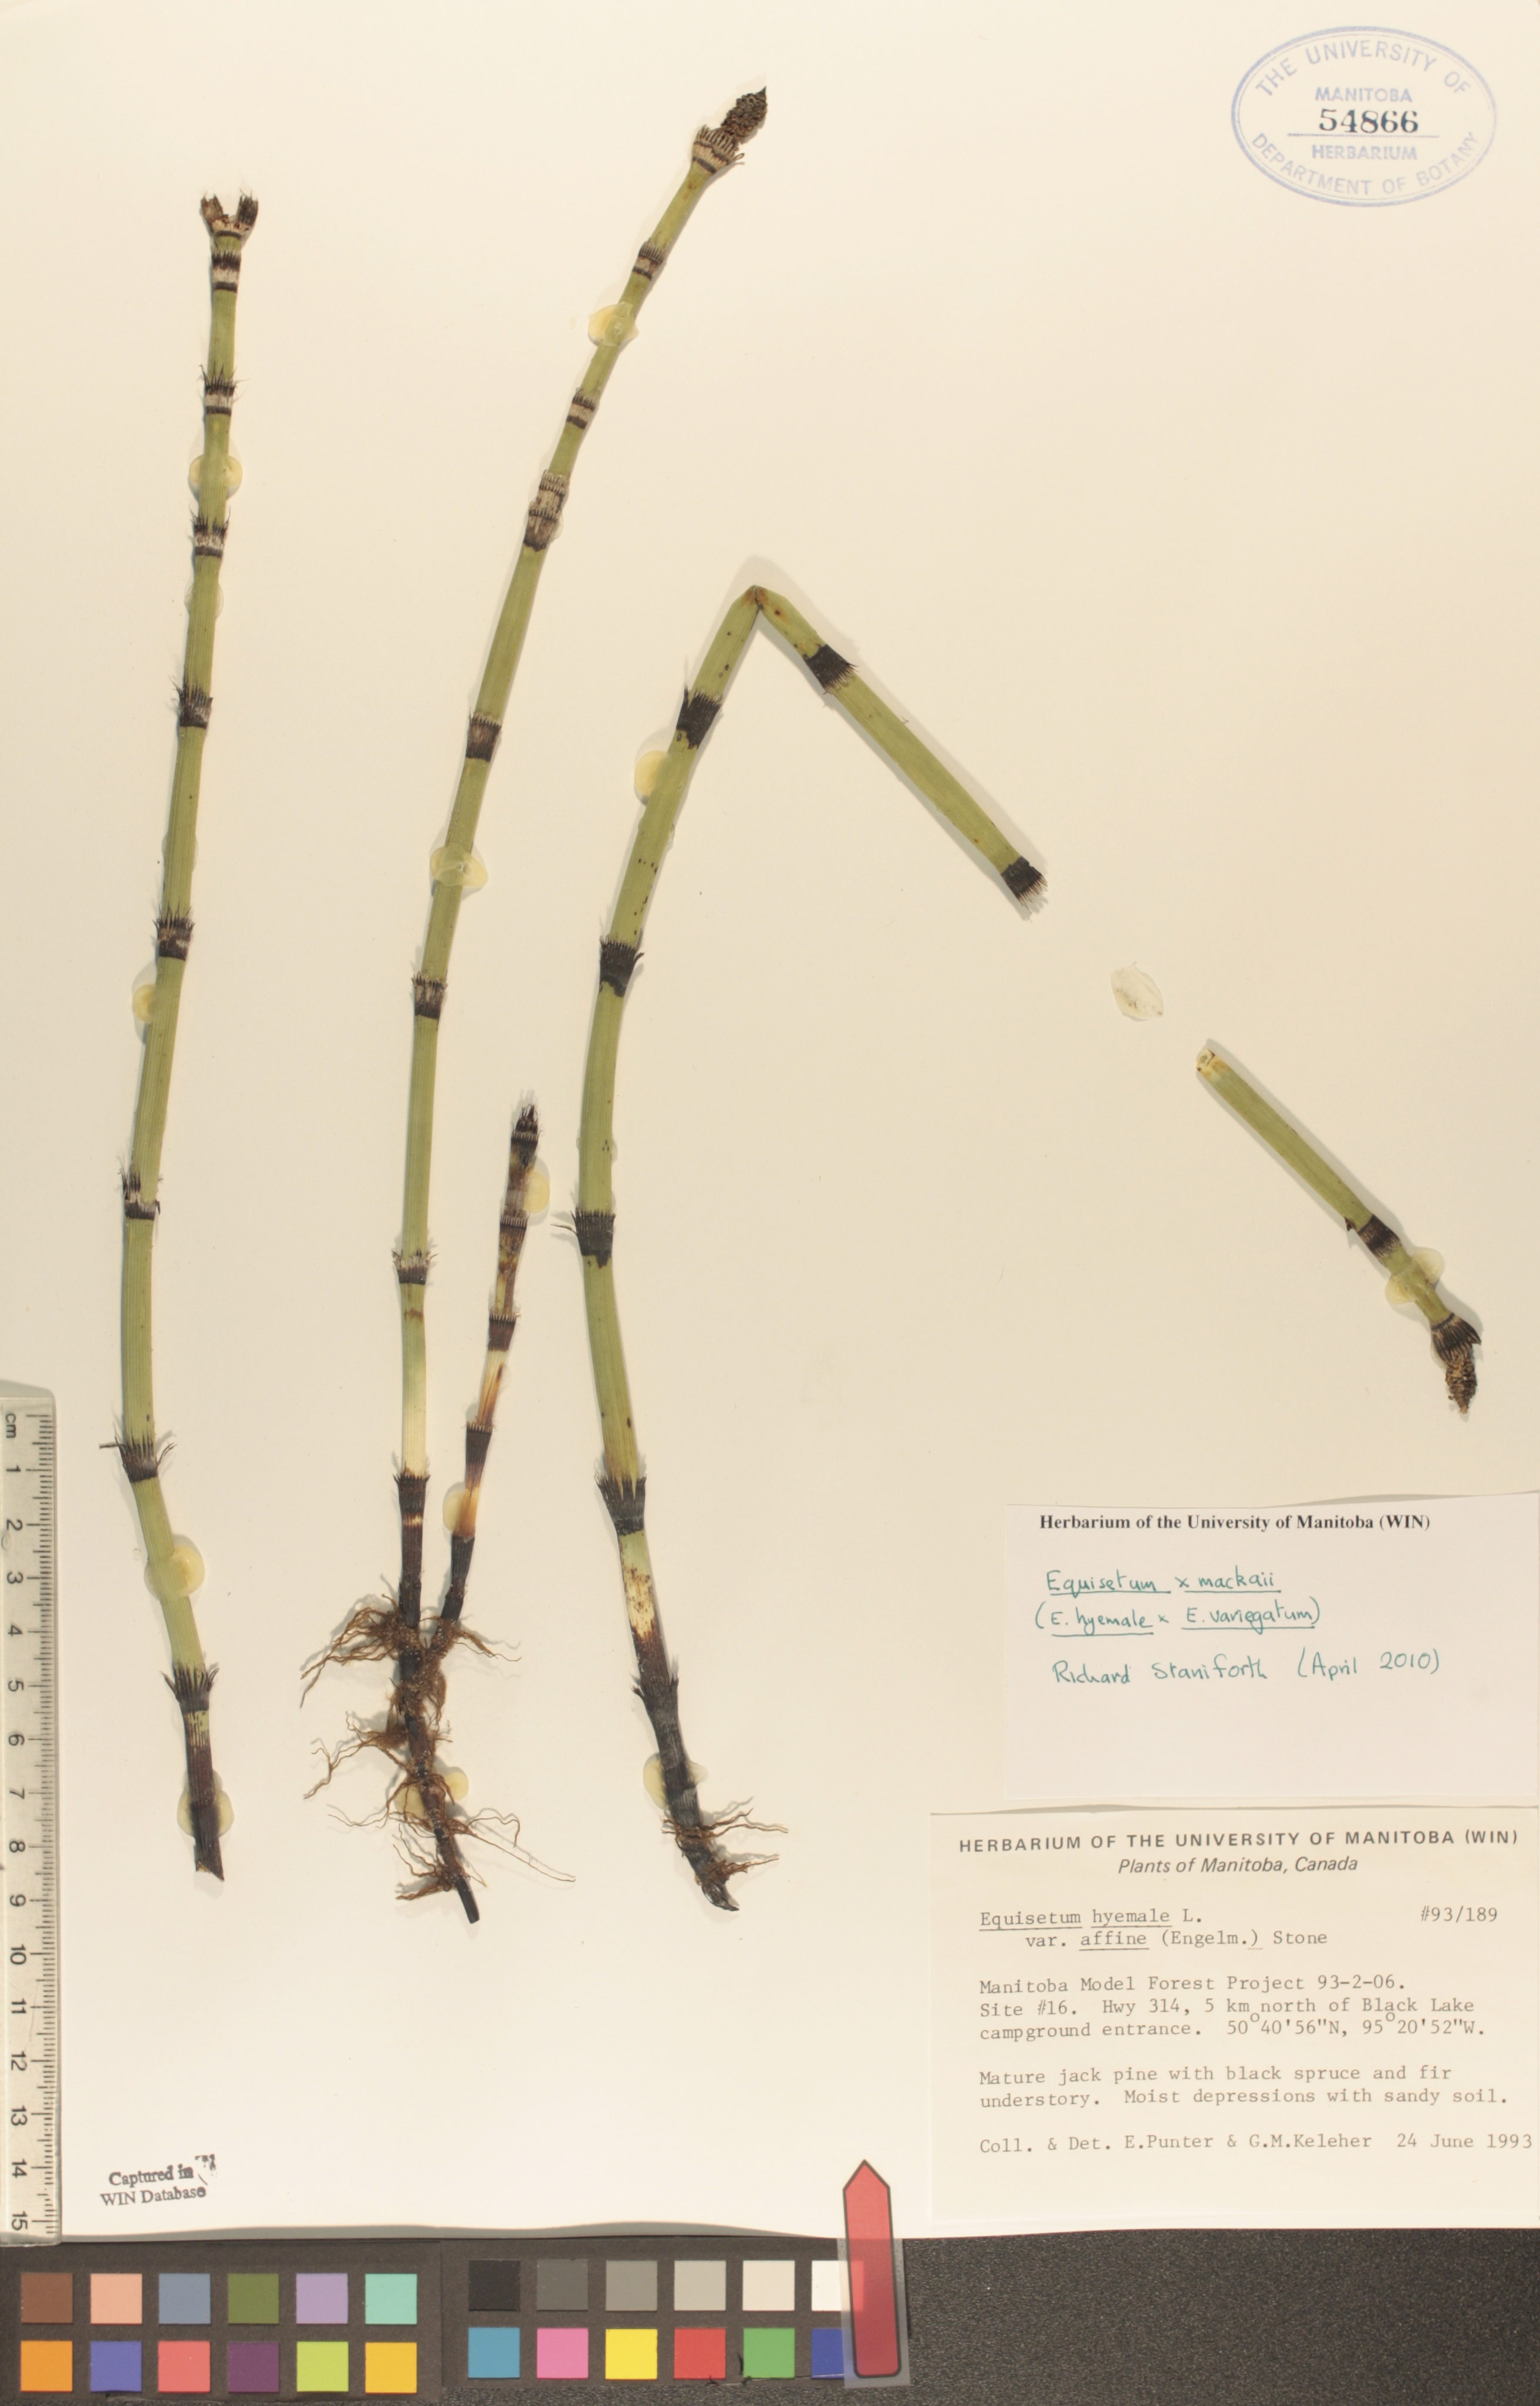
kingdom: Plantae
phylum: Tracheophyta
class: Polypodiopsida
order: Equisetales
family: Equisetaceae
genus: Equisetum
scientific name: Equisetum praealtum
